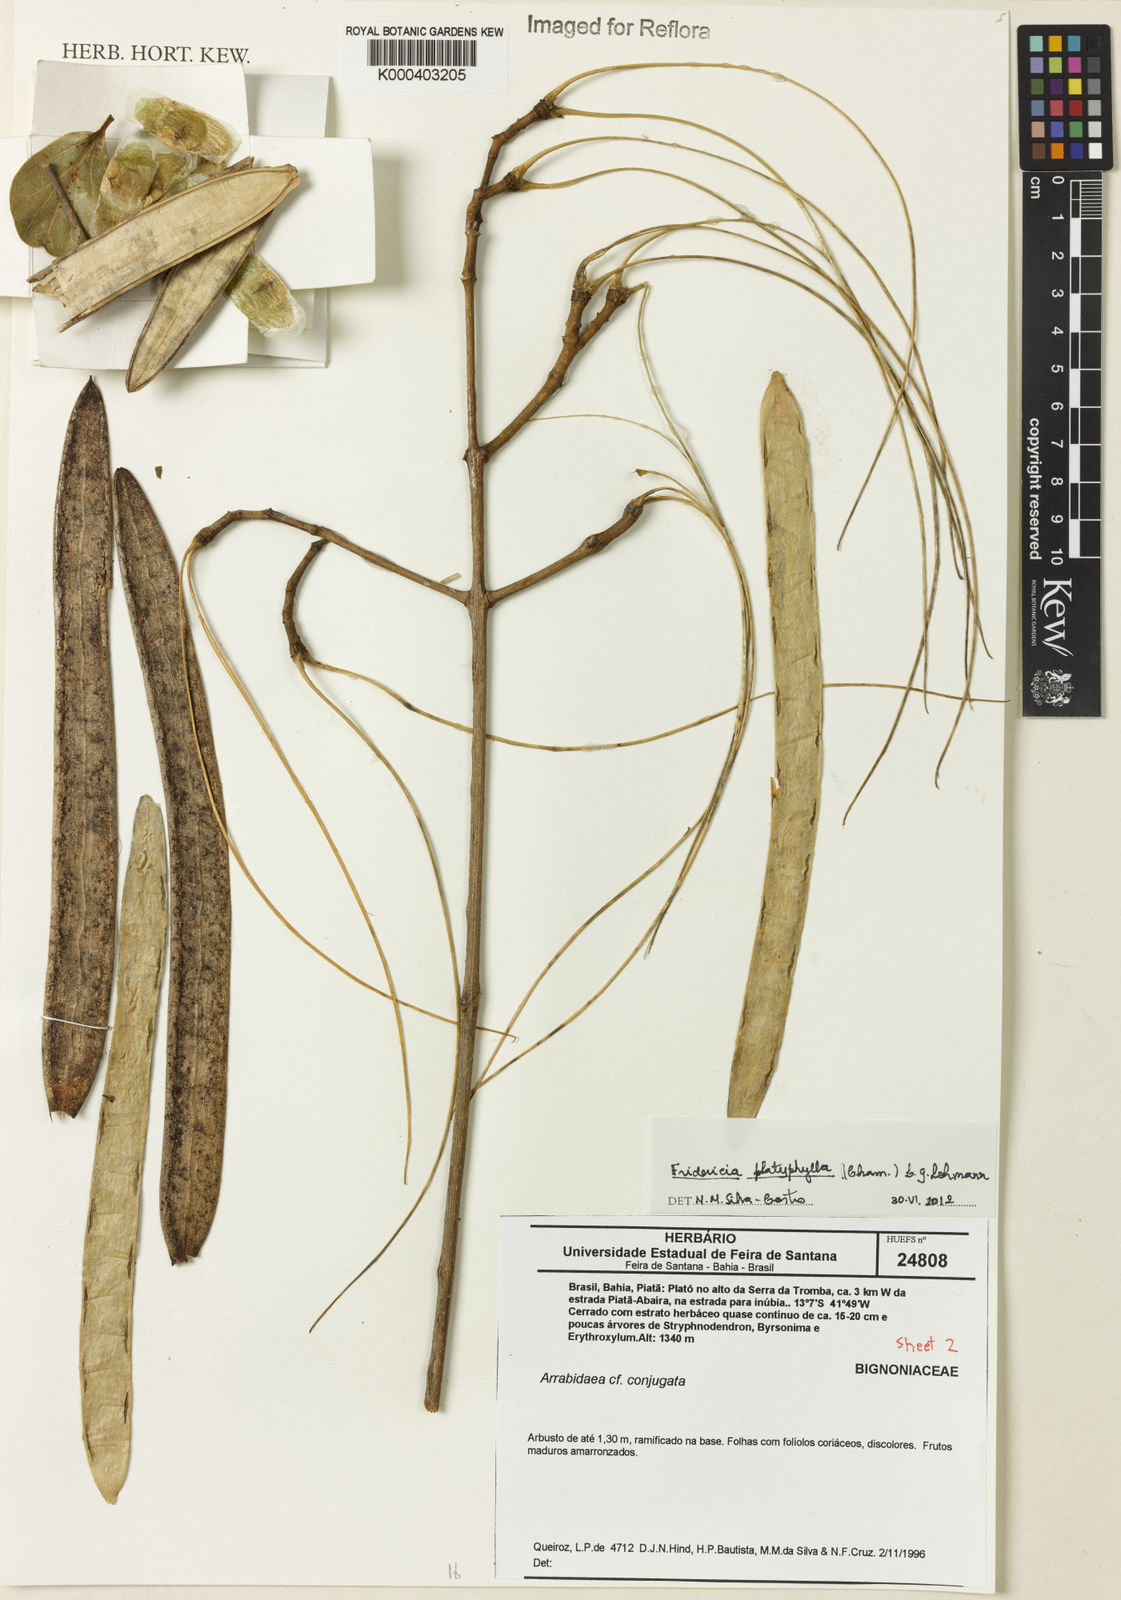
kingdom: Plantae
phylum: Tracheophyta
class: Magnoliopsida
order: Lamiales
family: Bignoniaceae
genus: Fridericia
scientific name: Fridericia platyphylla
